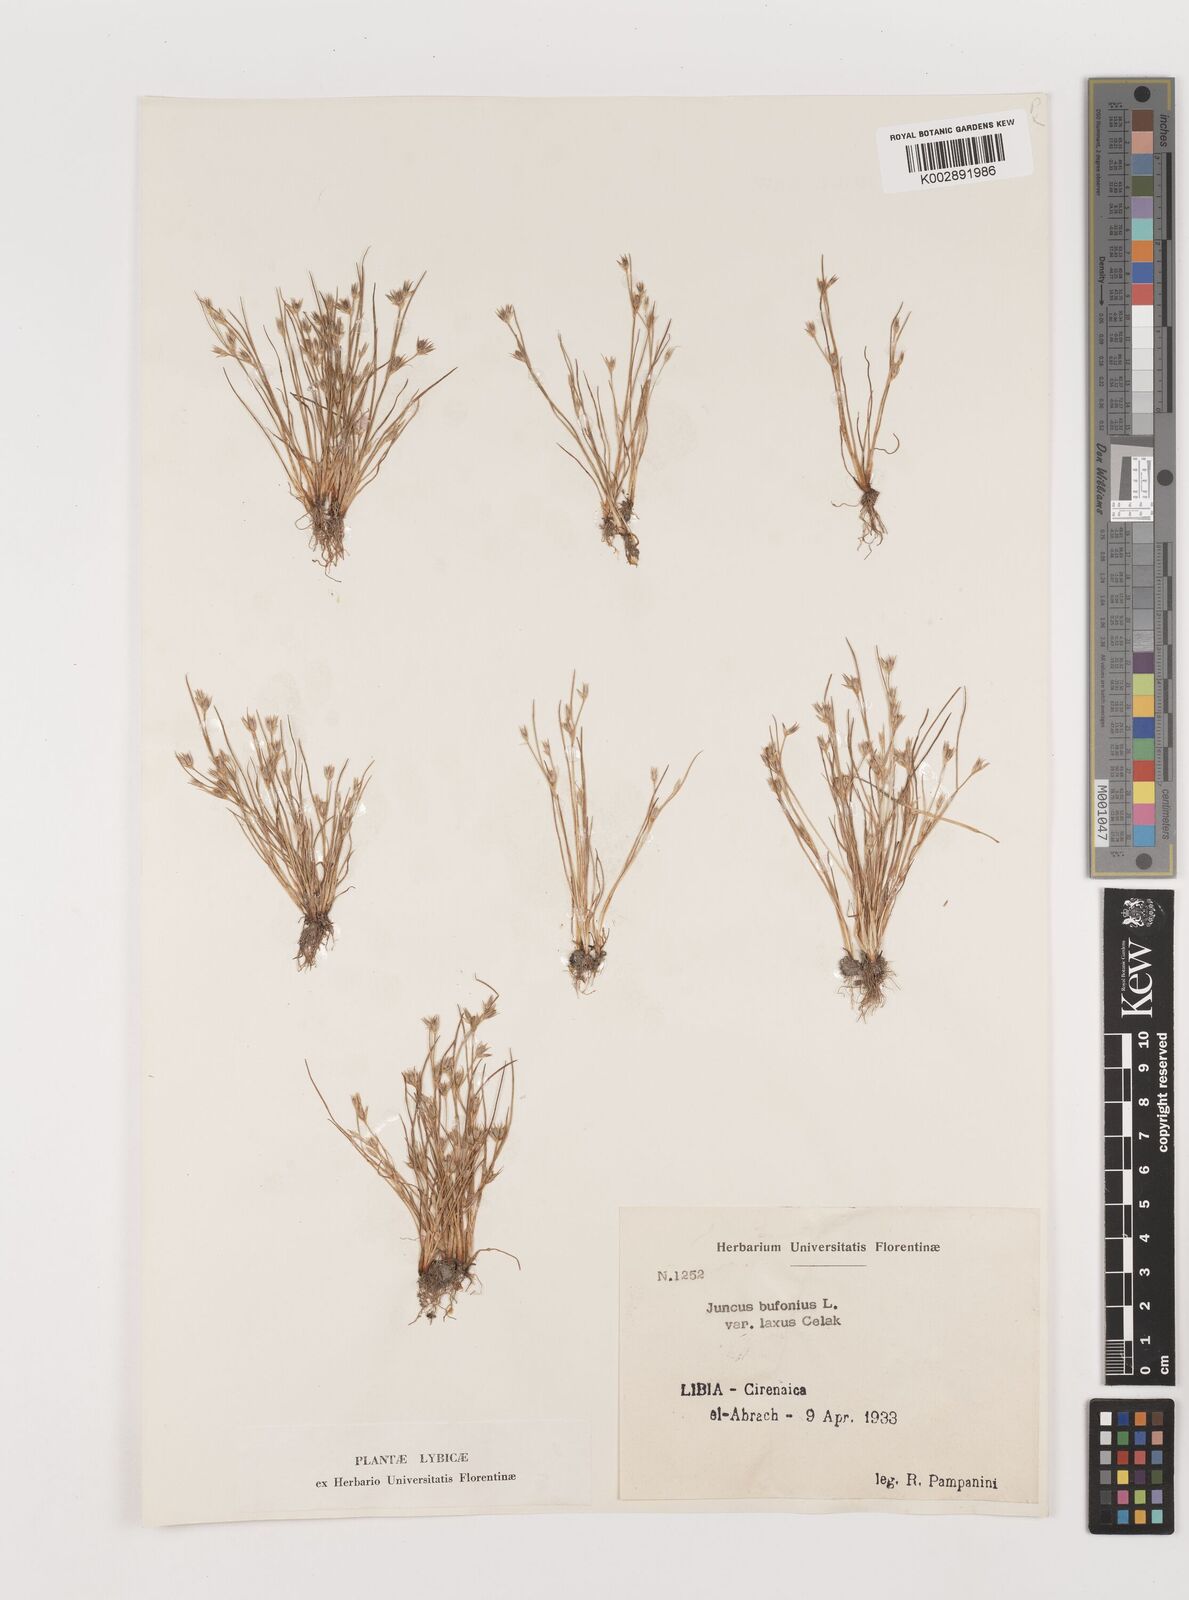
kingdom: Plantae
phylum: Tracheophyta
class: Liliopsida
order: Poales
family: Juncaceae
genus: Juncus
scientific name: Juncus bufonius
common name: Toad rush
